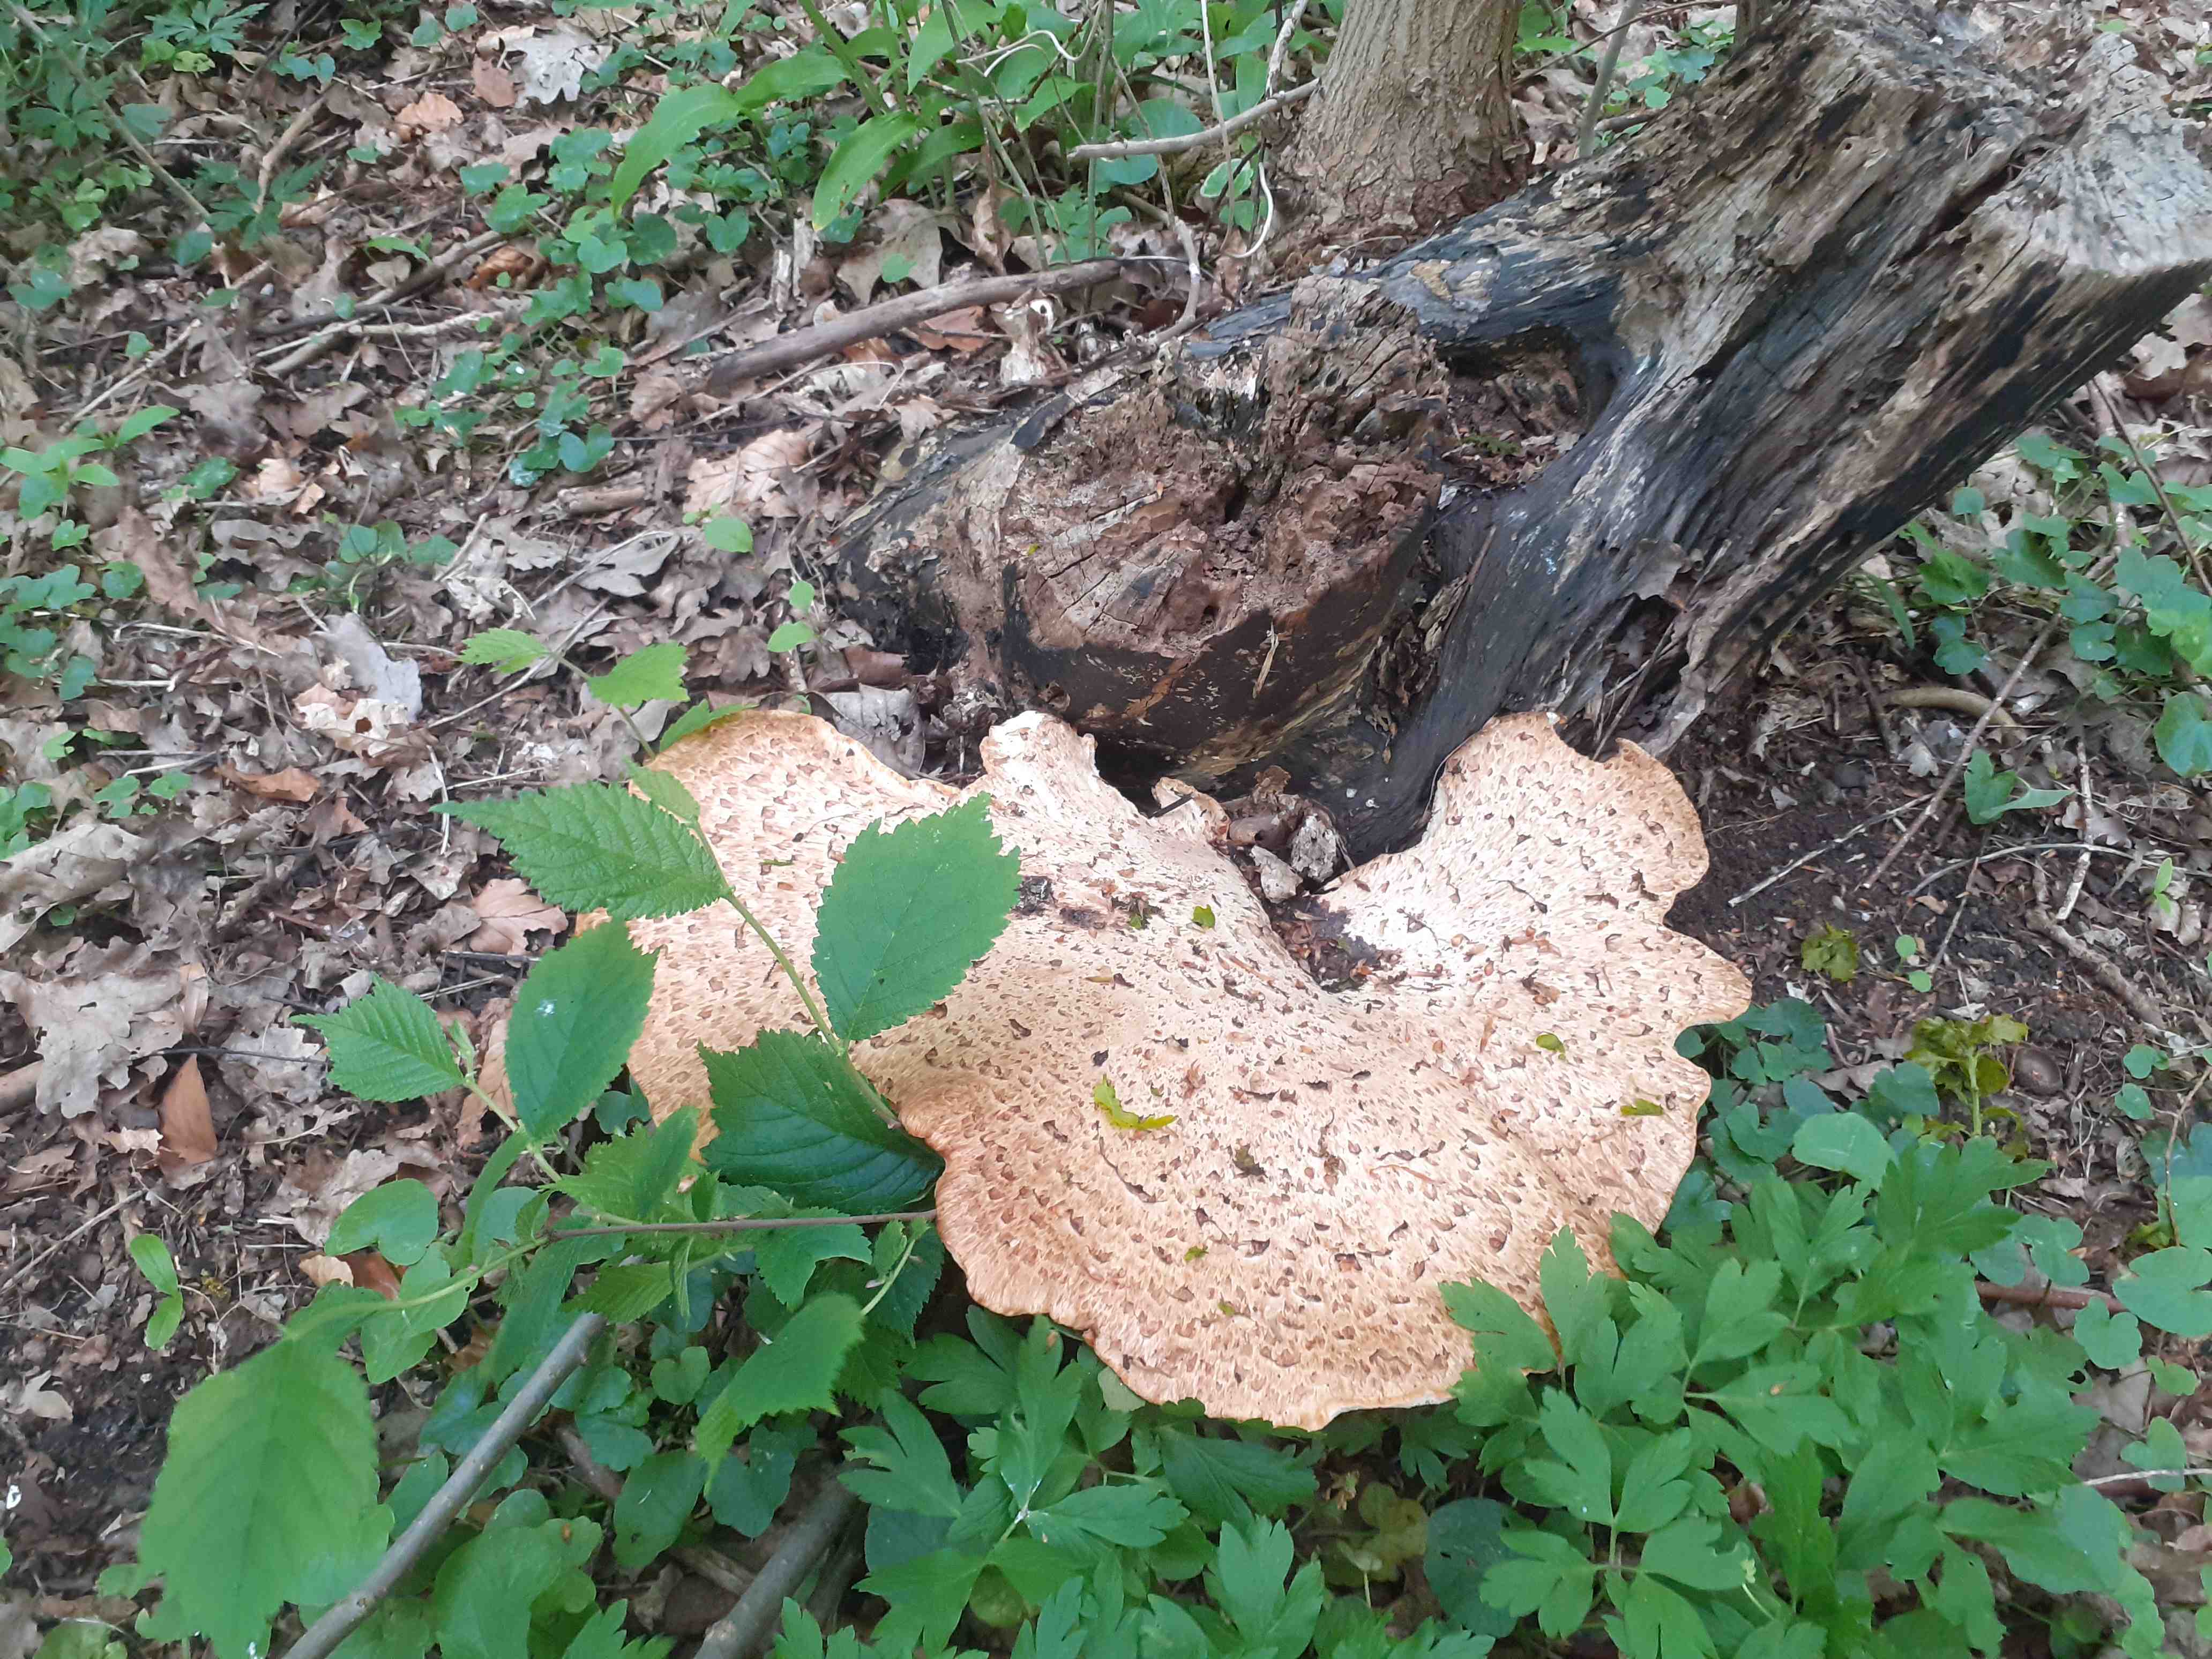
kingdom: Fungi
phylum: Basidiomycota
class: Agaricomycetes
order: Polyporales
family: Polyporaceae
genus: Cerioporus
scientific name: Cerioporus squamosus
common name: skællet stilkporesvamp
